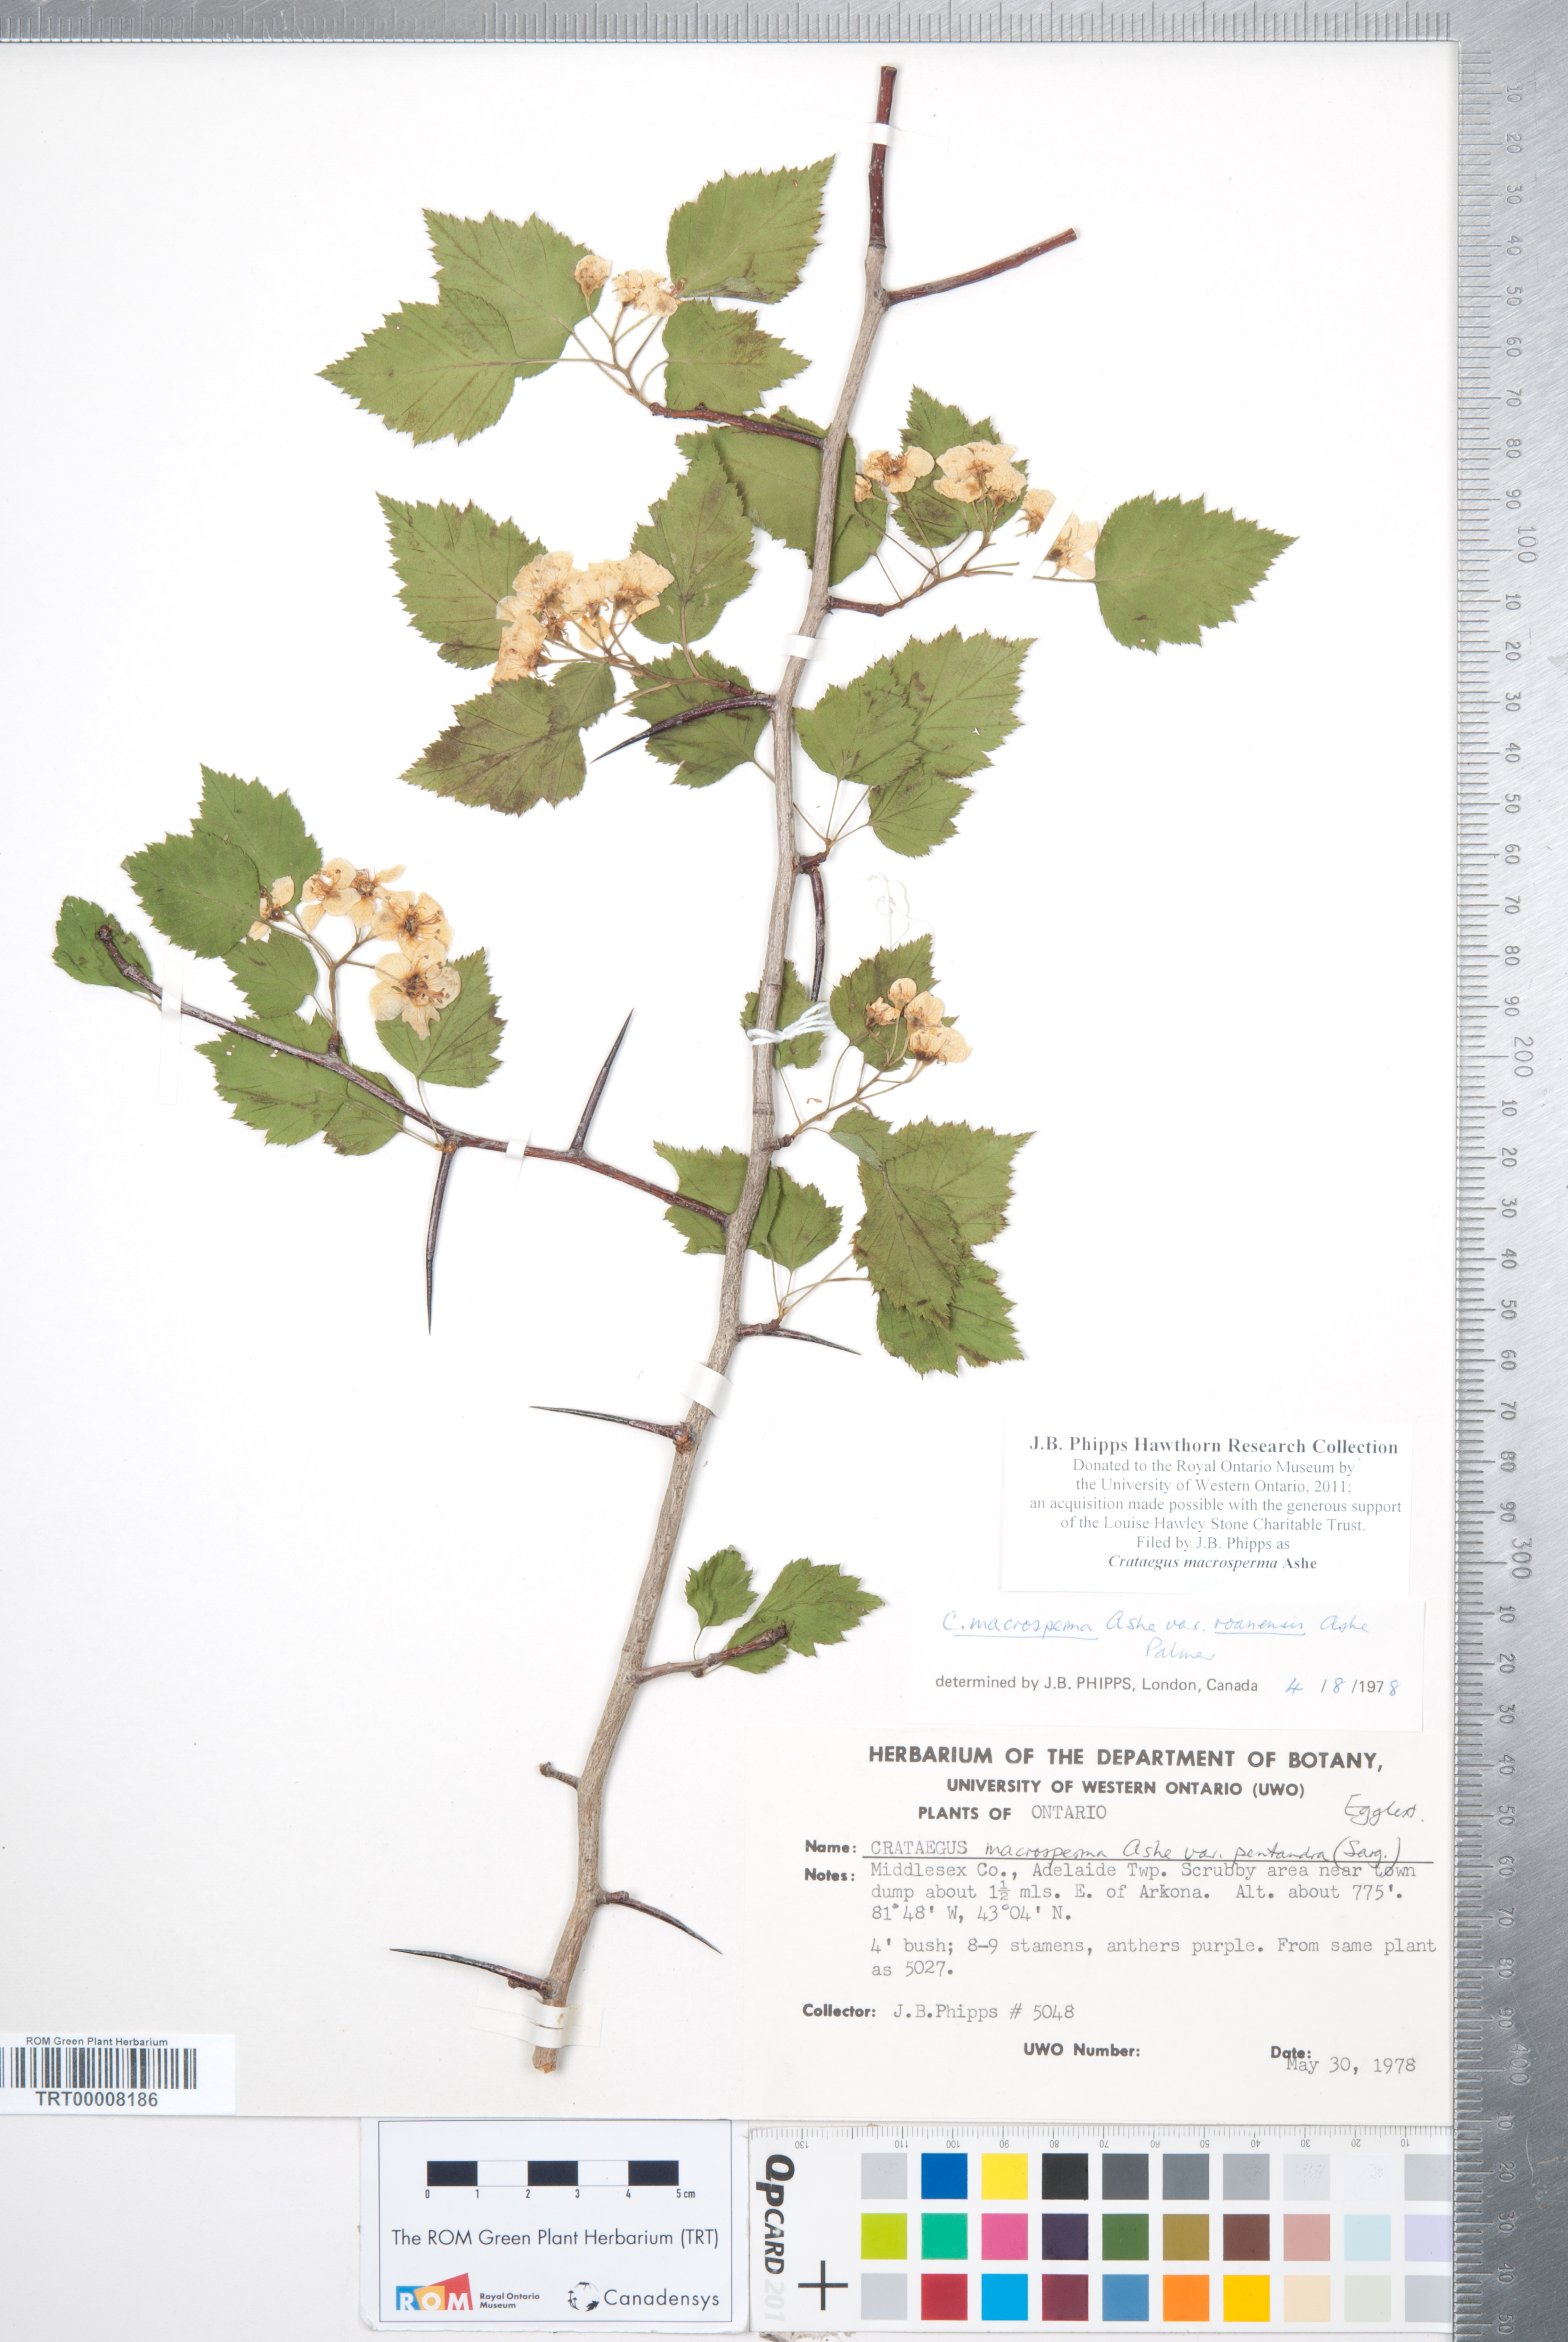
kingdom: Plantae
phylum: Tracheophyta
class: Magnoliopsida
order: Rosales
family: Rosaceae
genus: Crataegus
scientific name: Crataegus macrosperma
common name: Variable hawthorn
